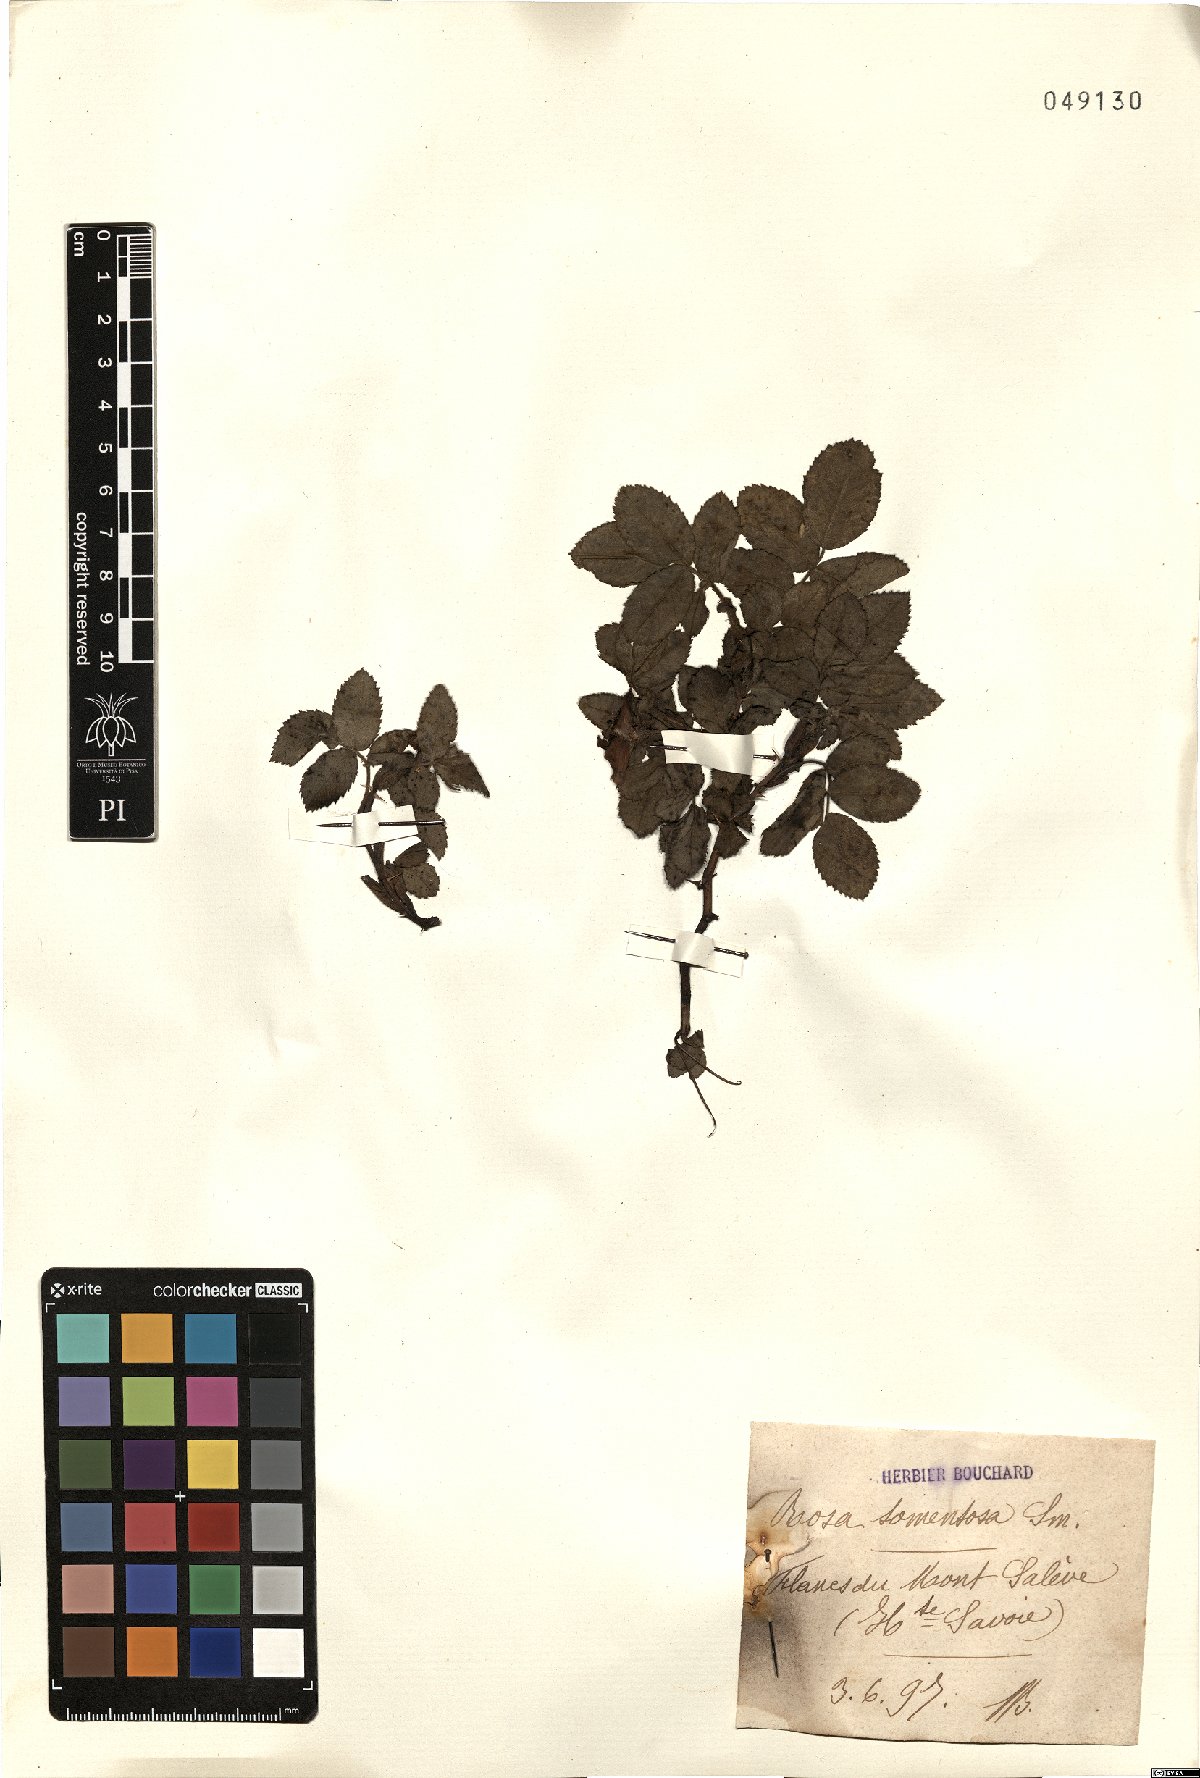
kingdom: Plantae
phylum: Tracheophyta
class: Magnoliopsida
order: Rosales
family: Rosaceae
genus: Rosa
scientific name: Rosa tomentosa
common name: Downy rose
